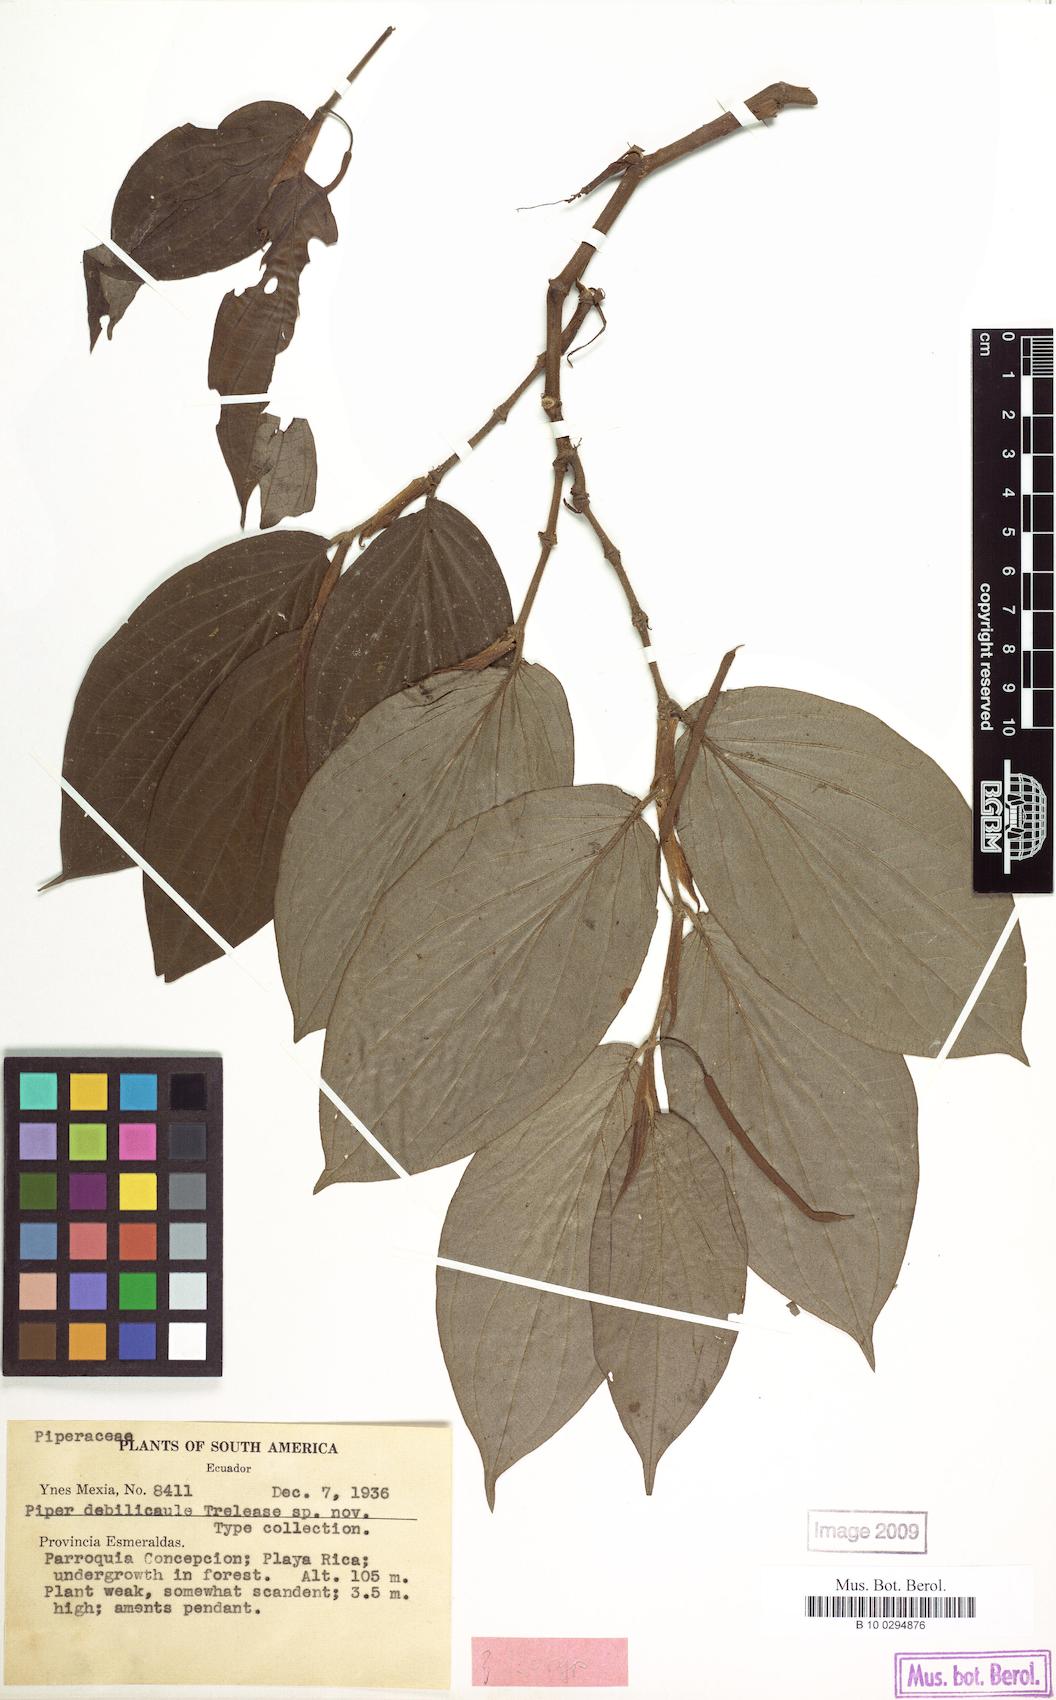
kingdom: Plantae
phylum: Tracheophyta
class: Magnoliopsida
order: Piperales
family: Piperaceae
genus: Piper
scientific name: Piper subsessilifolium
